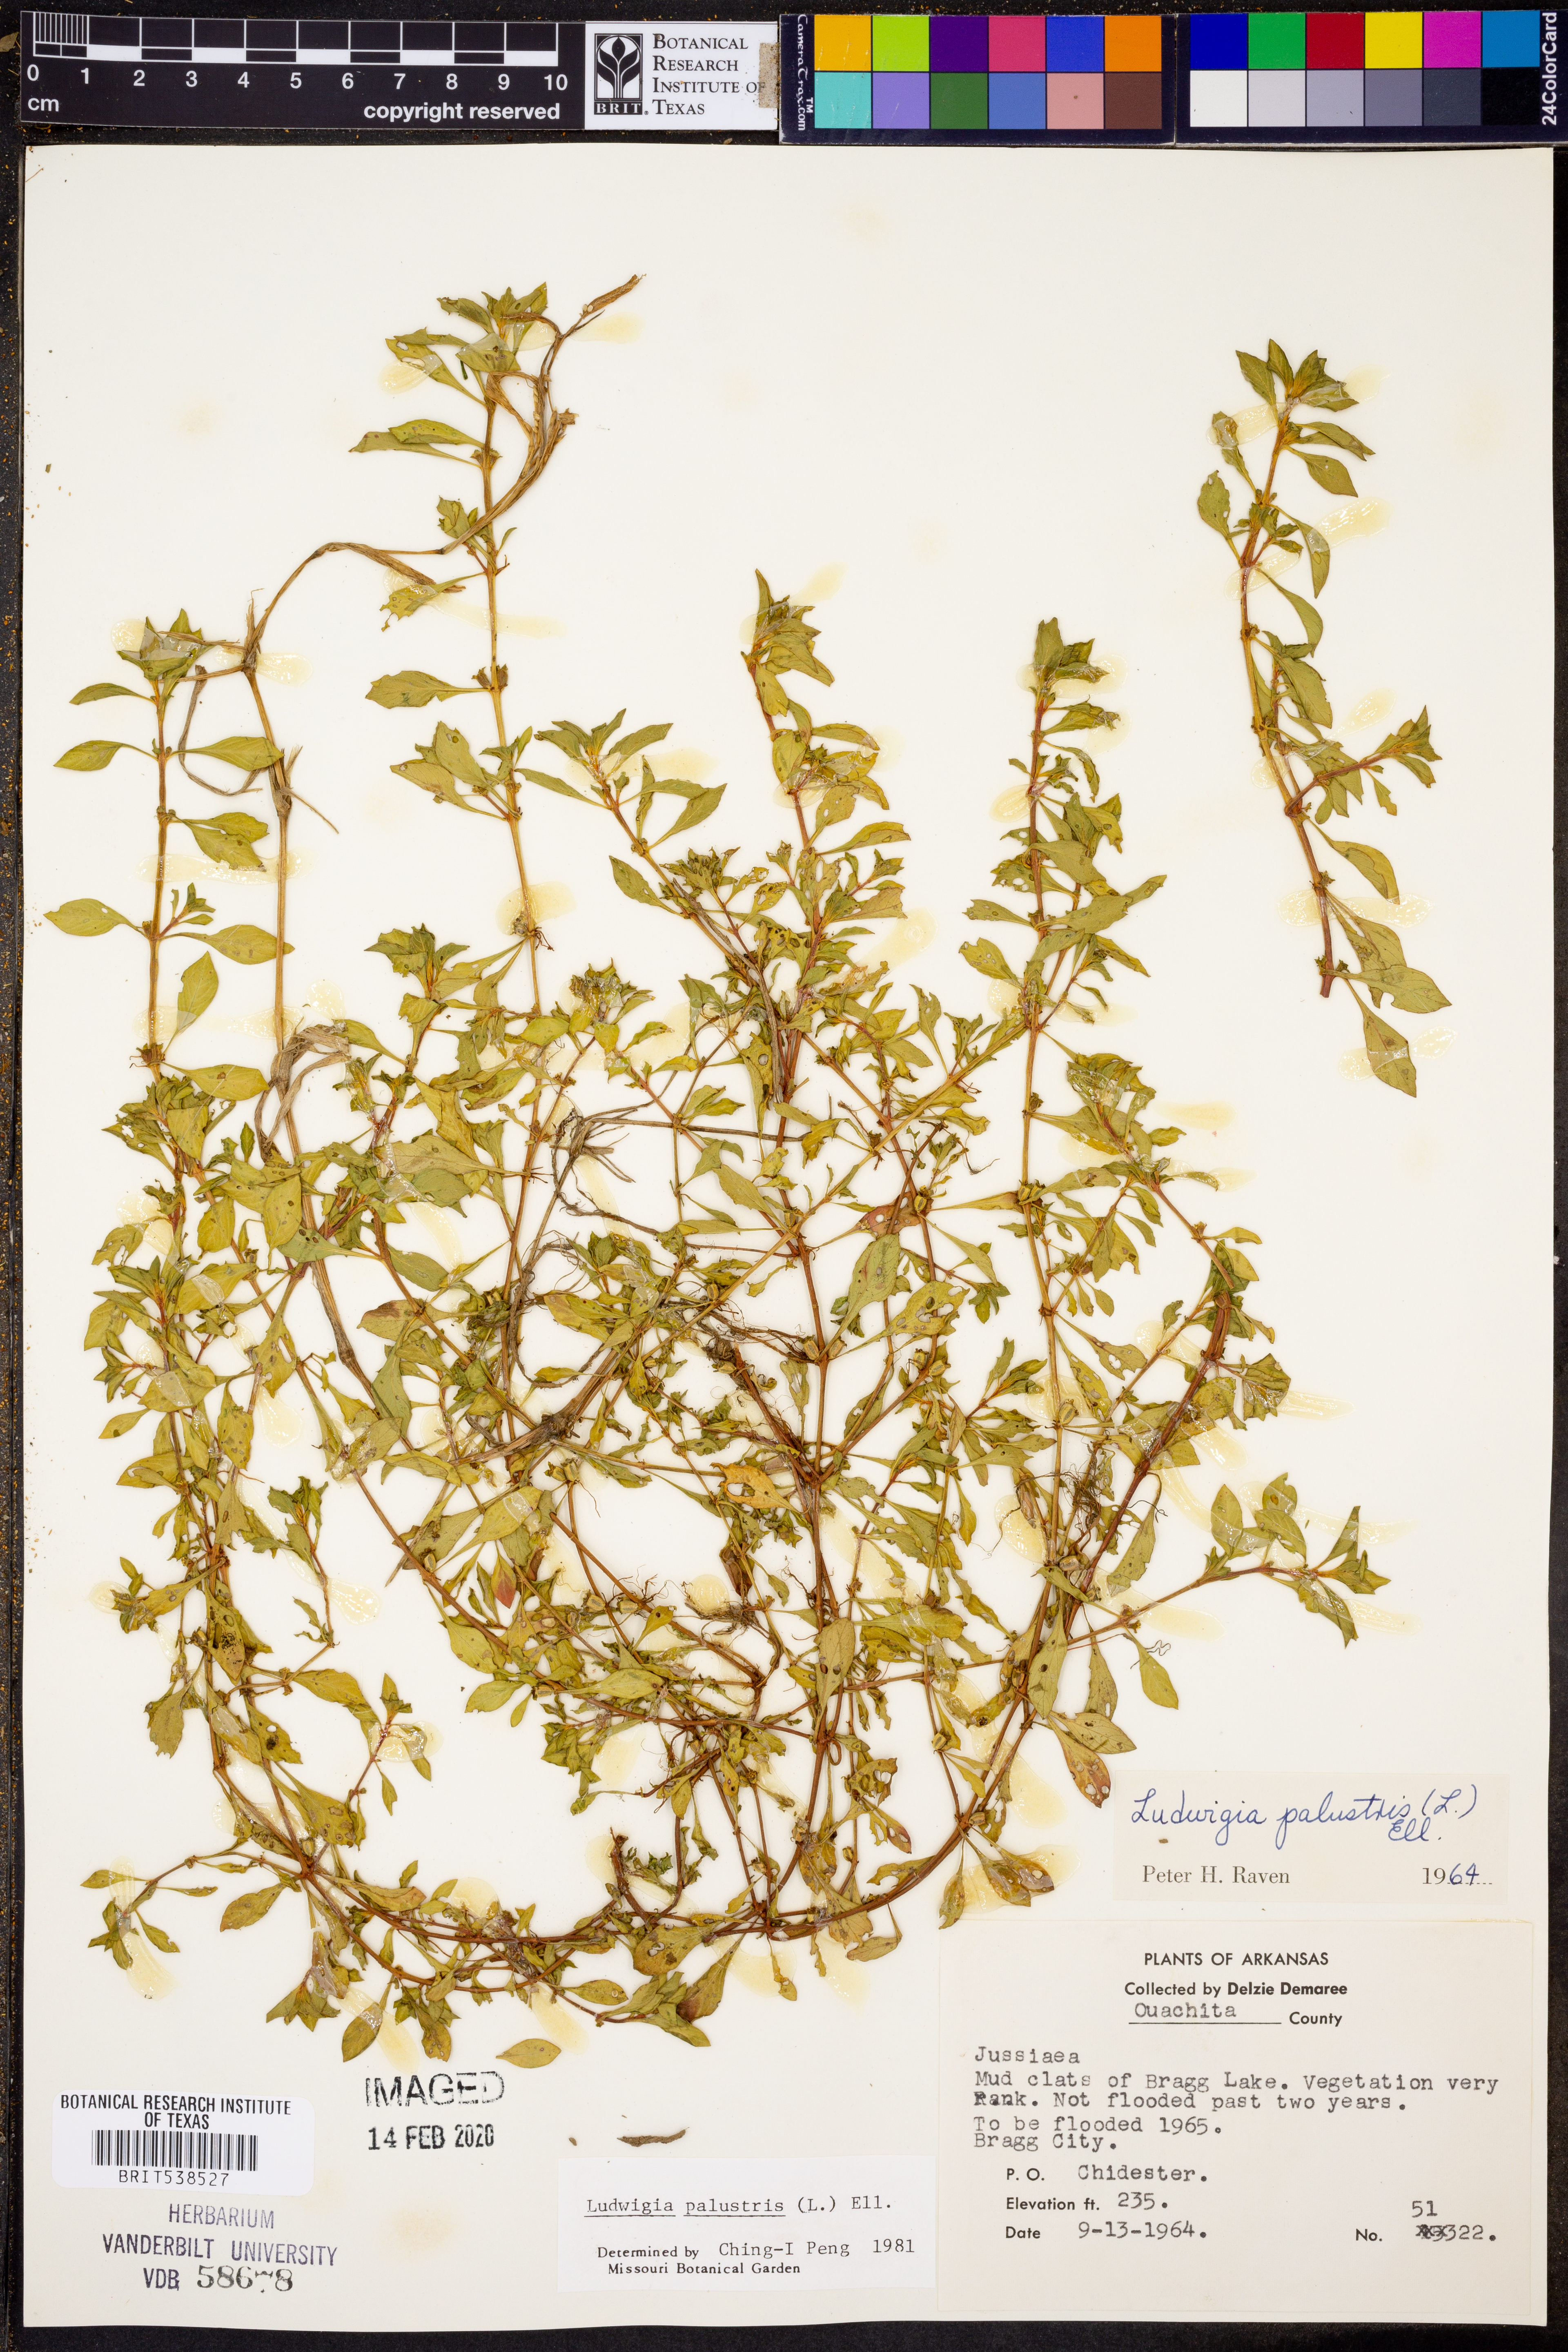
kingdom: Plantae
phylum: Tracheophyta
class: Magnoliopsida
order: Myrtales
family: Onagraceae
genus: Ludwigia
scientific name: Ludwigia palustris
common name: Hampshire-purslane
